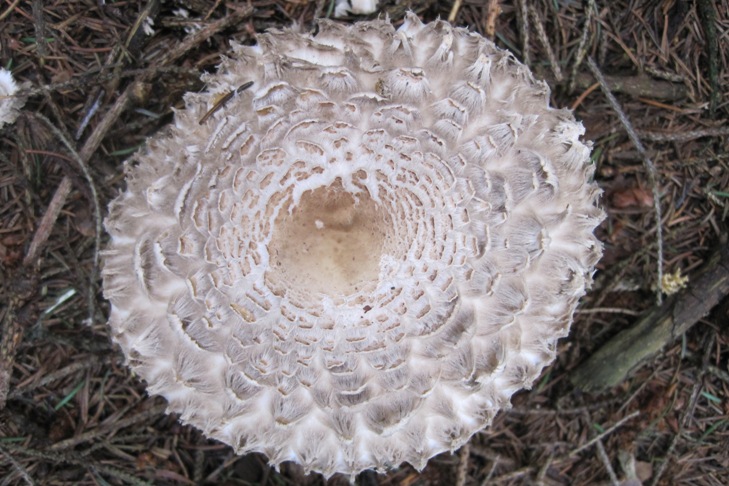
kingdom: Fungi
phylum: Basidiomycota
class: Agaricomycetes
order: Agaricales
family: Agaricaceae
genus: Chlorophyllum
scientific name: Chlorophyllum olivieri
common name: almindelig rabarberhat
